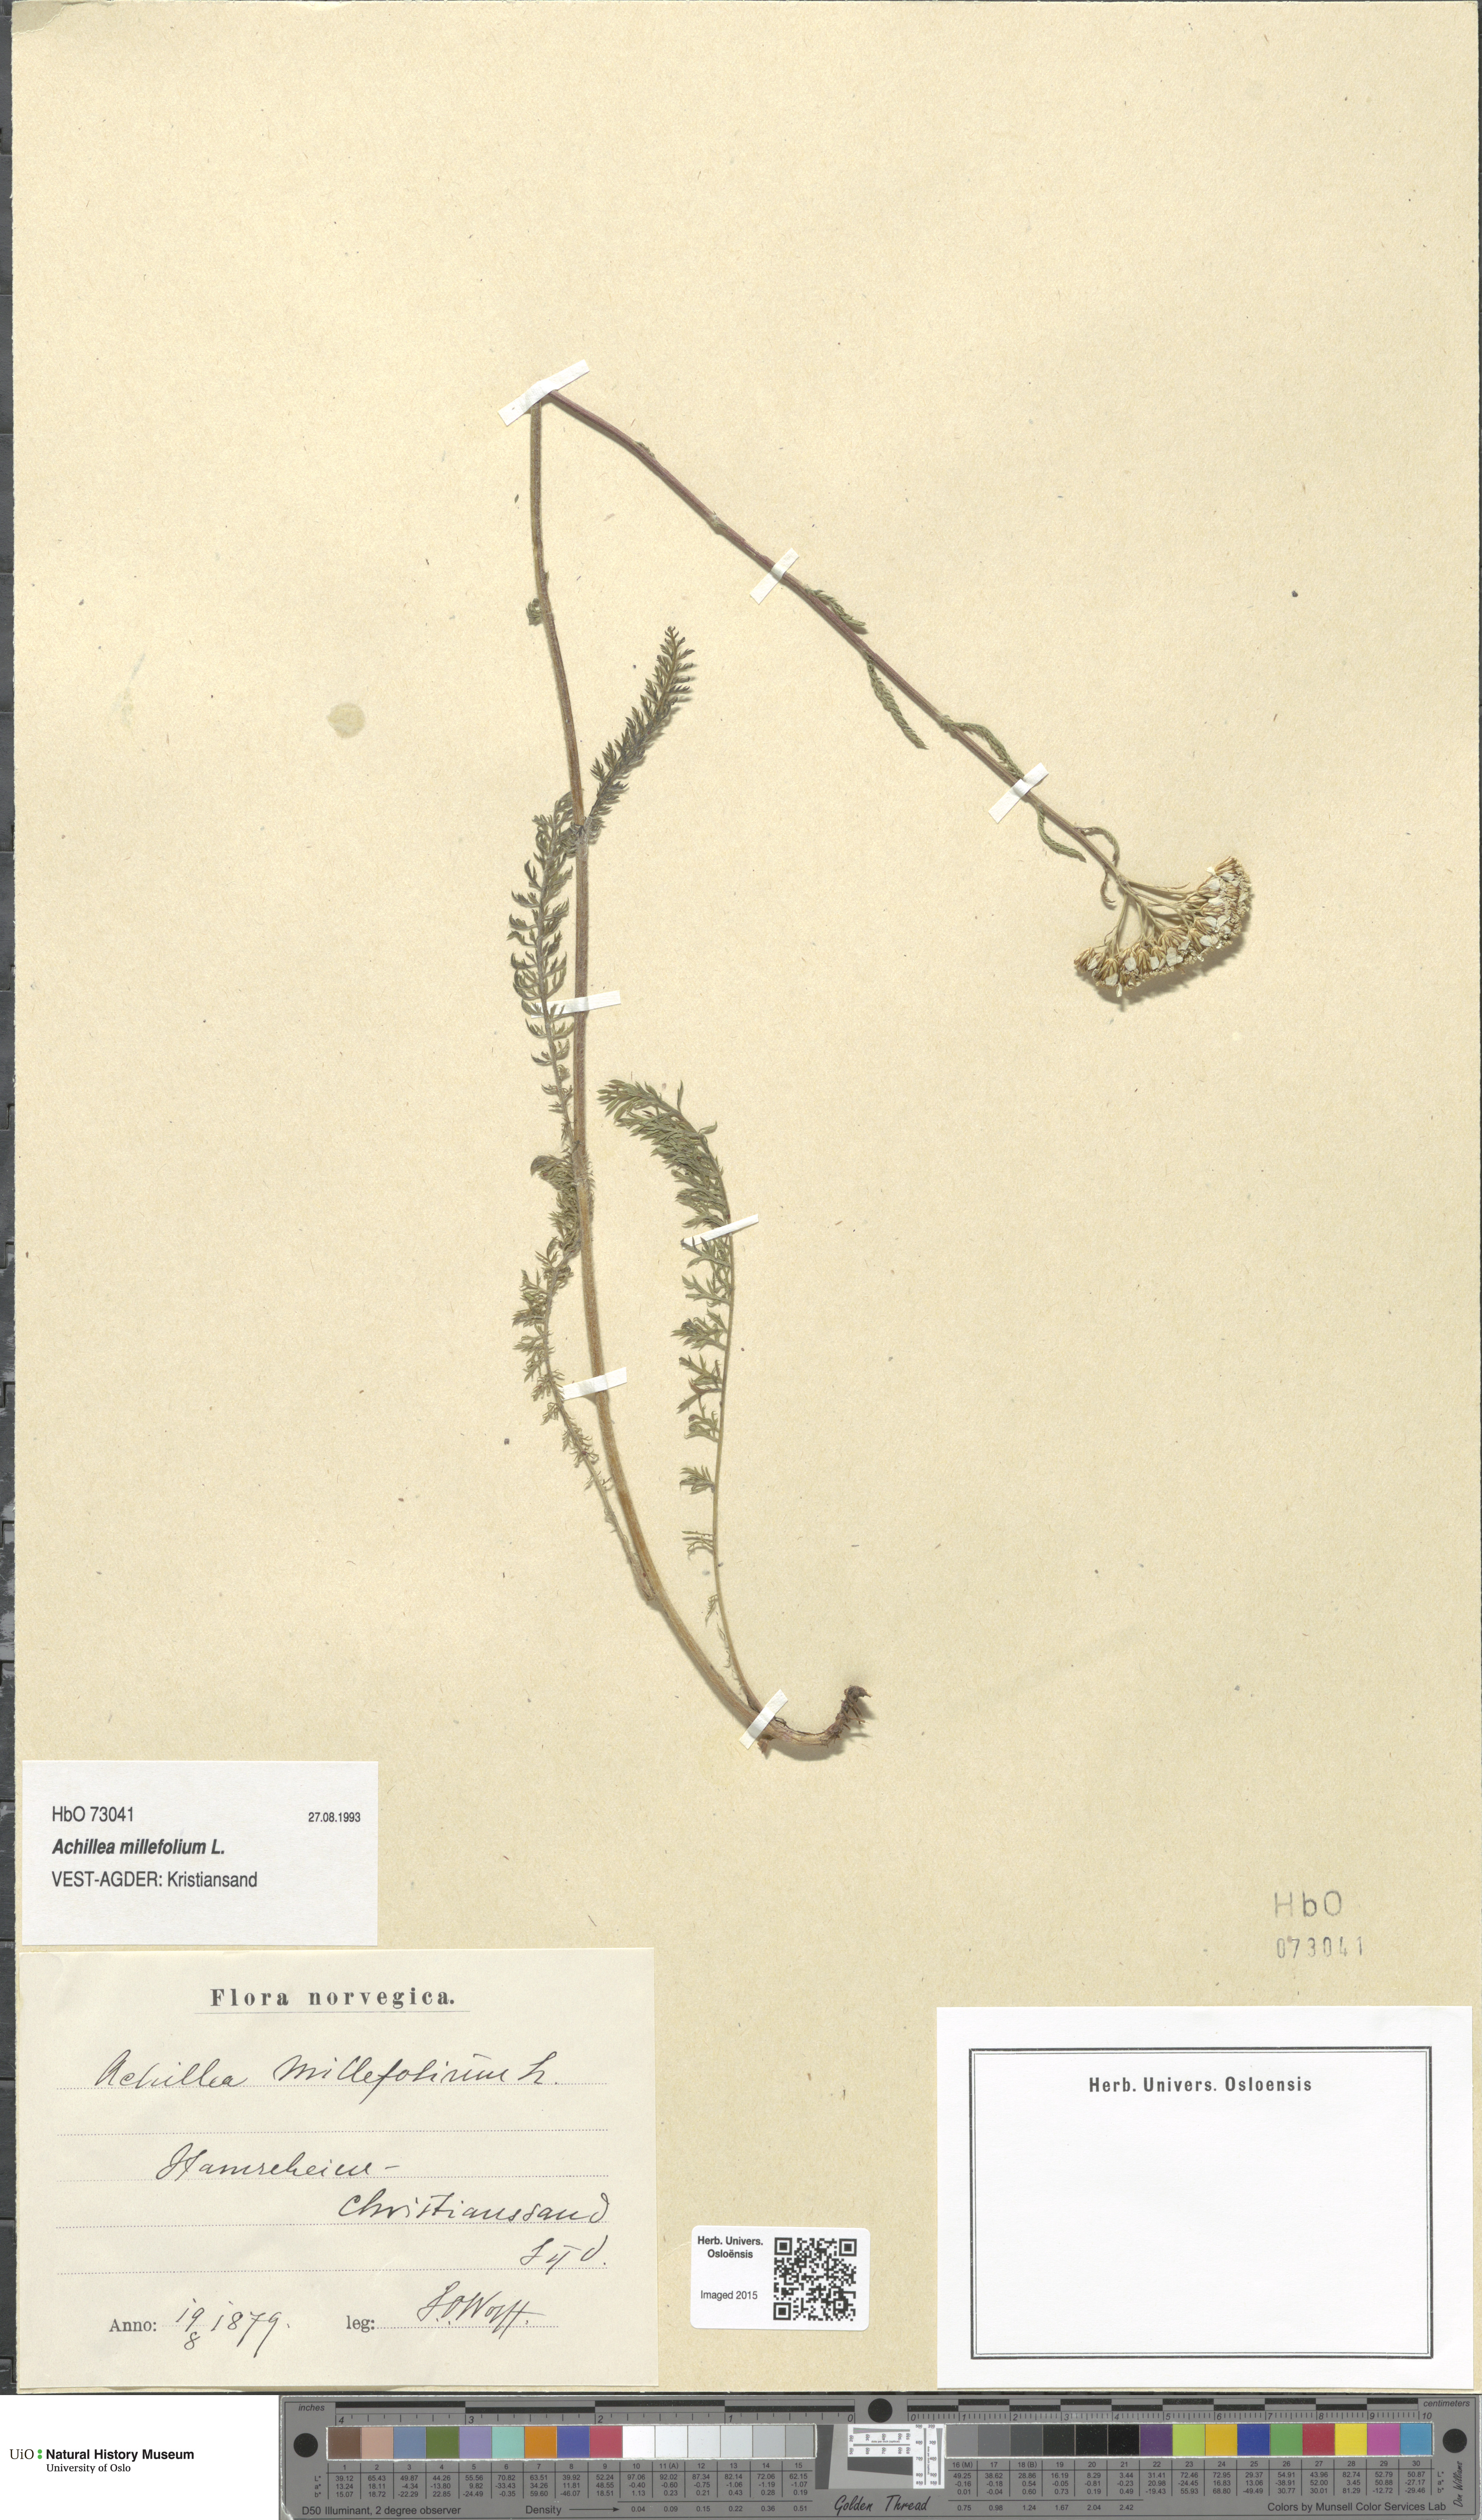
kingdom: Plantae
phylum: Tracheophyta
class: Magnoliopsida
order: Asterales
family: Asteraceae
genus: Achillea
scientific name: Achillea millefolium
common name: Yarrow
